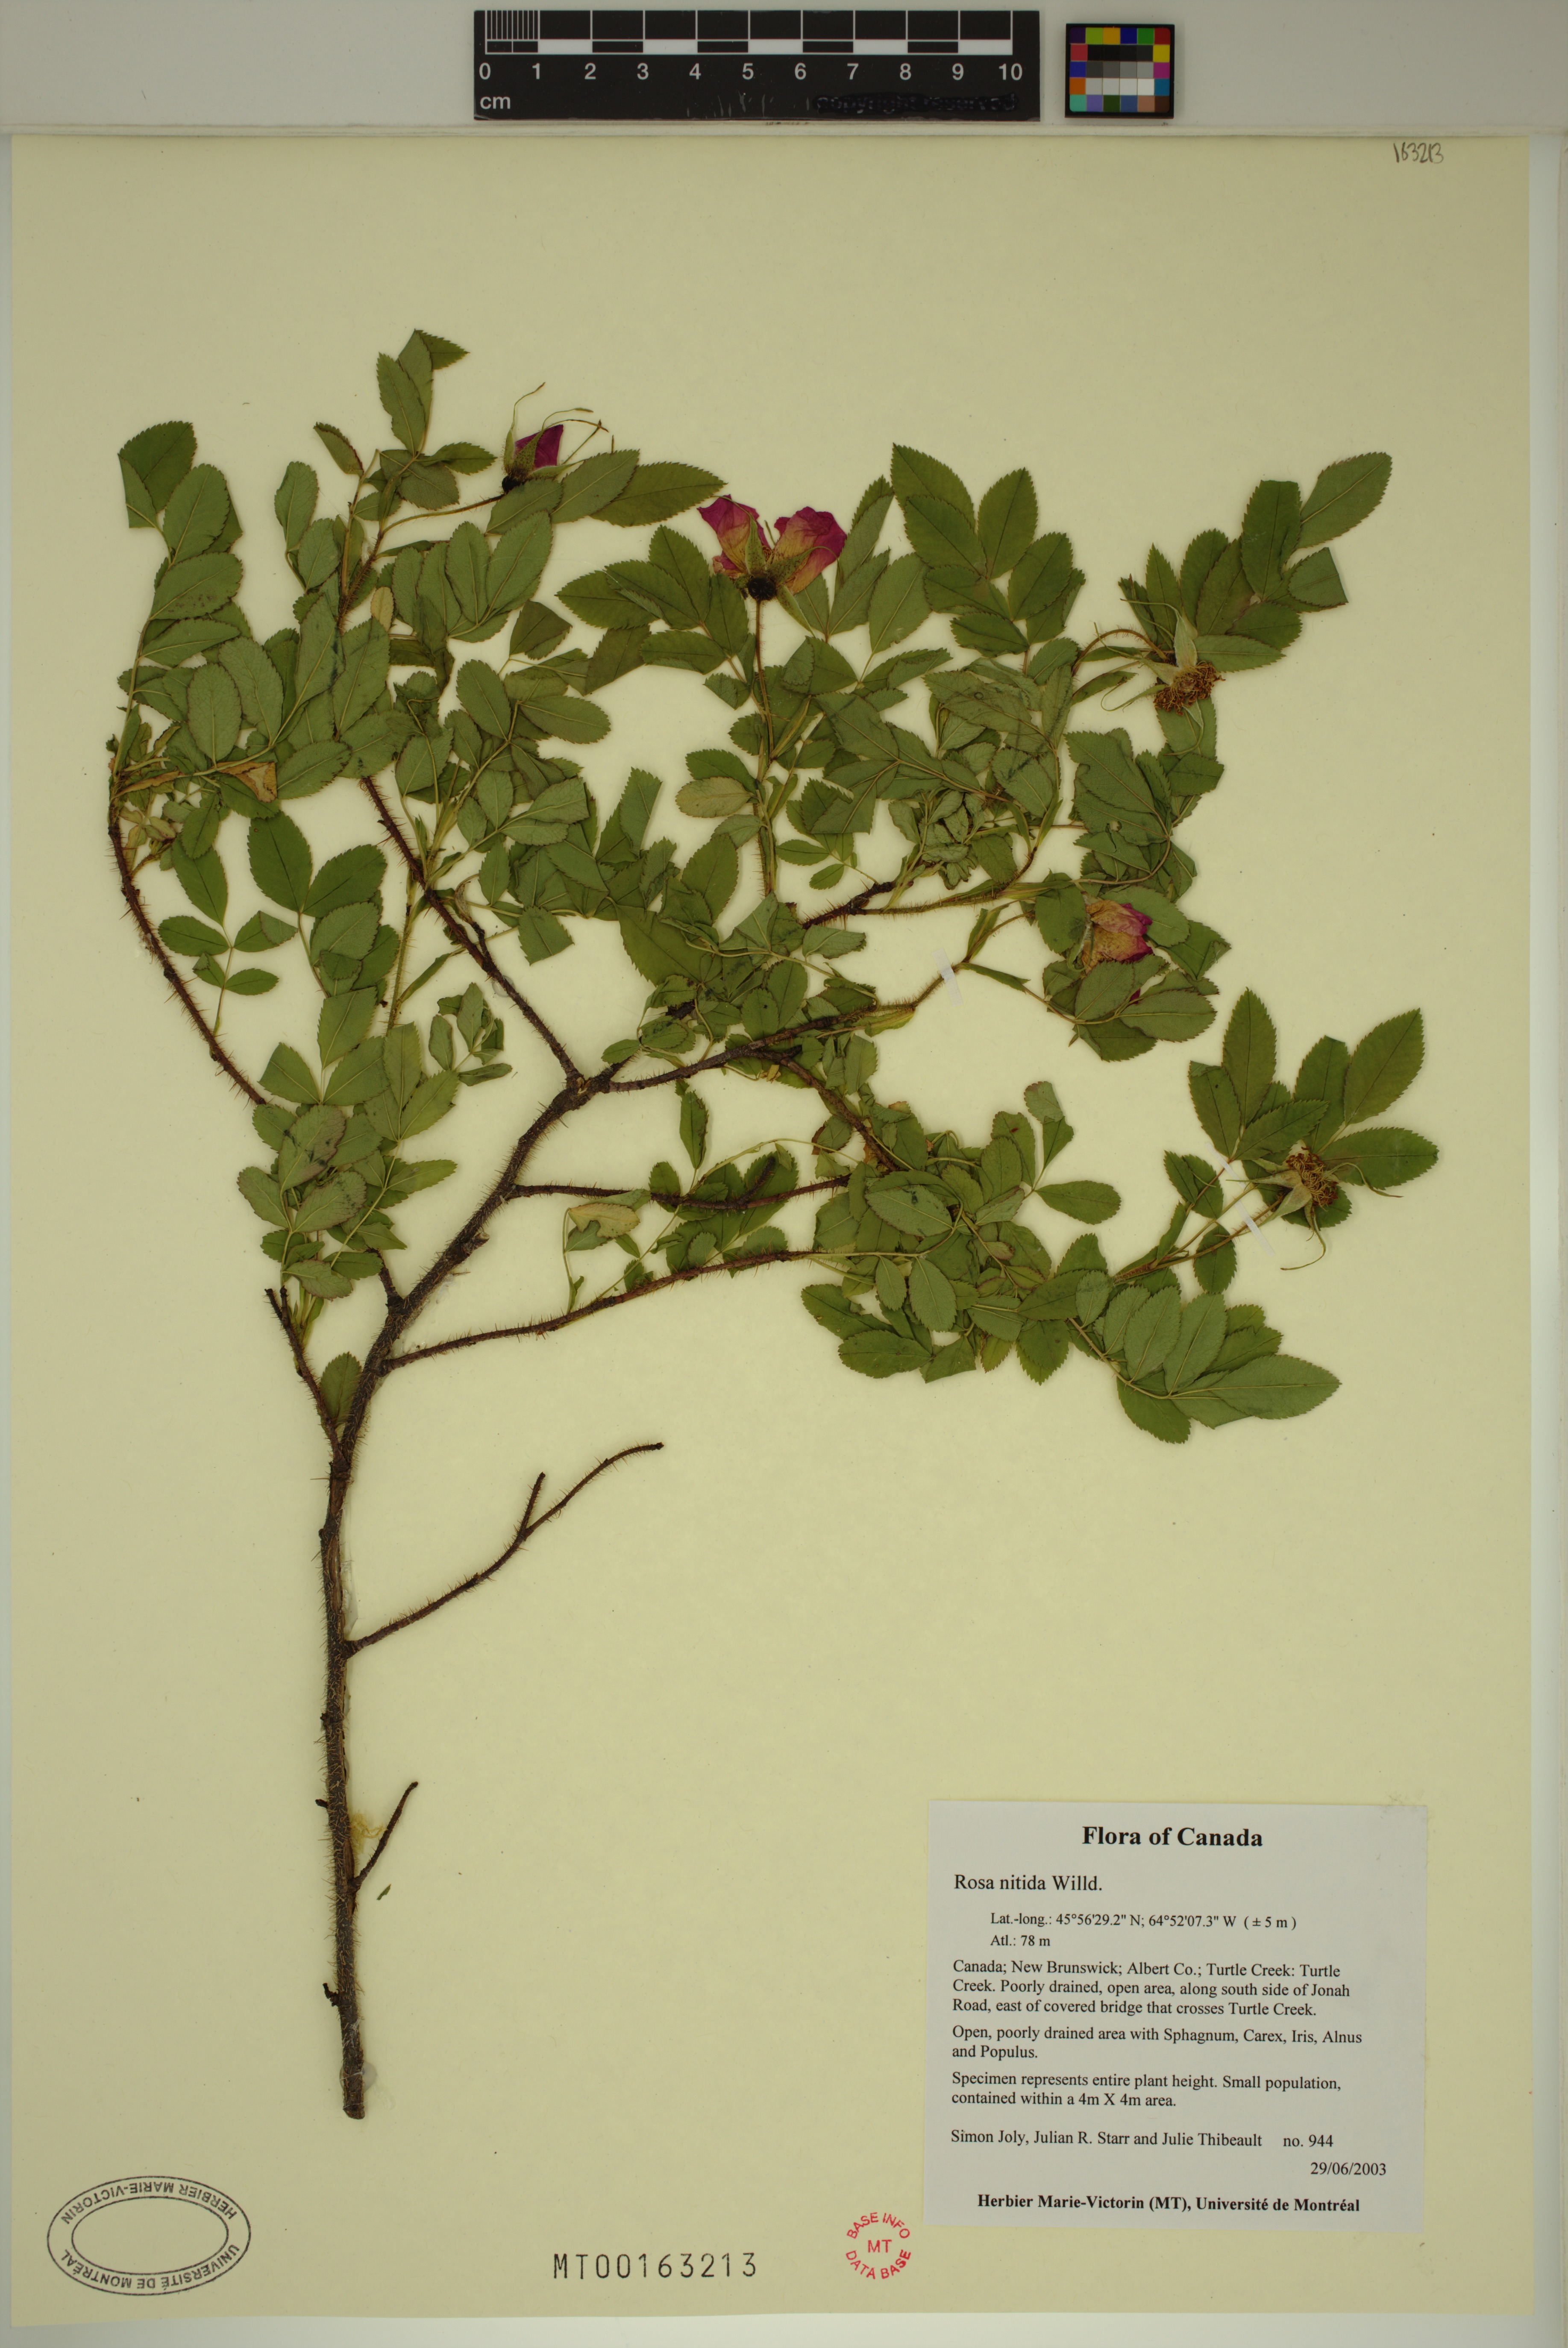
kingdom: Plantae
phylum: Tracheophyta
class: Magnoliopsida
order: Rosales
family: Rosaceae
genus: Rosa
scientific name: Rosa nitida
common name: New england rose
